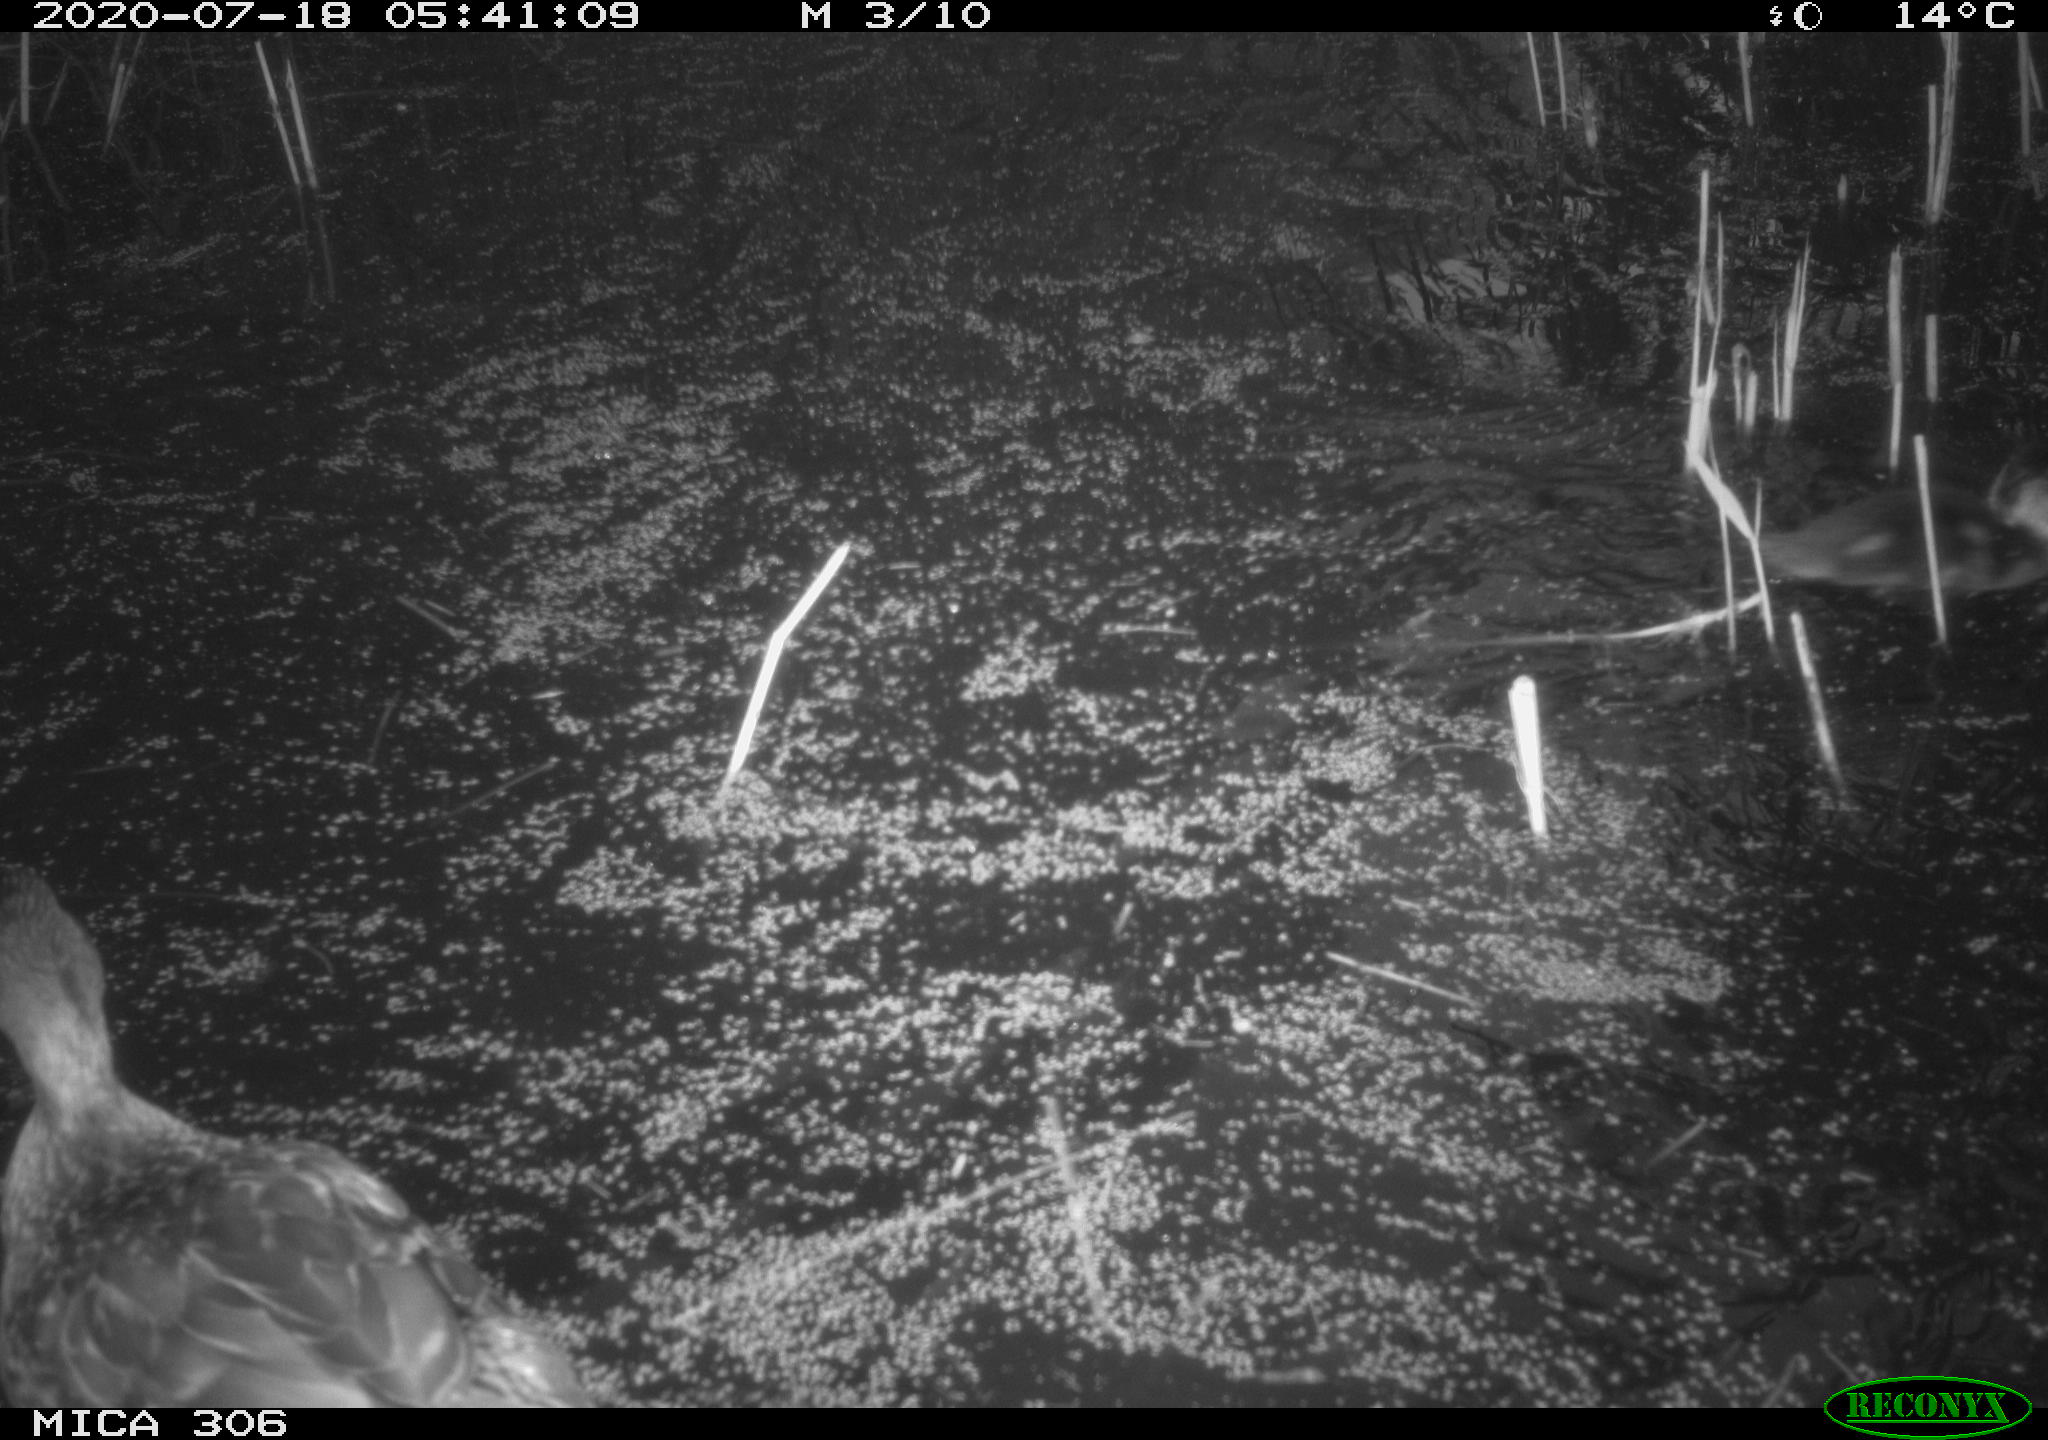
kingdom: Animalia
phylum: Chordata
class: Aves
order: Anseriformes
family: Anatidae
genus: Anas
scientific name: Anas platyrhynchos
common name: Mallard
